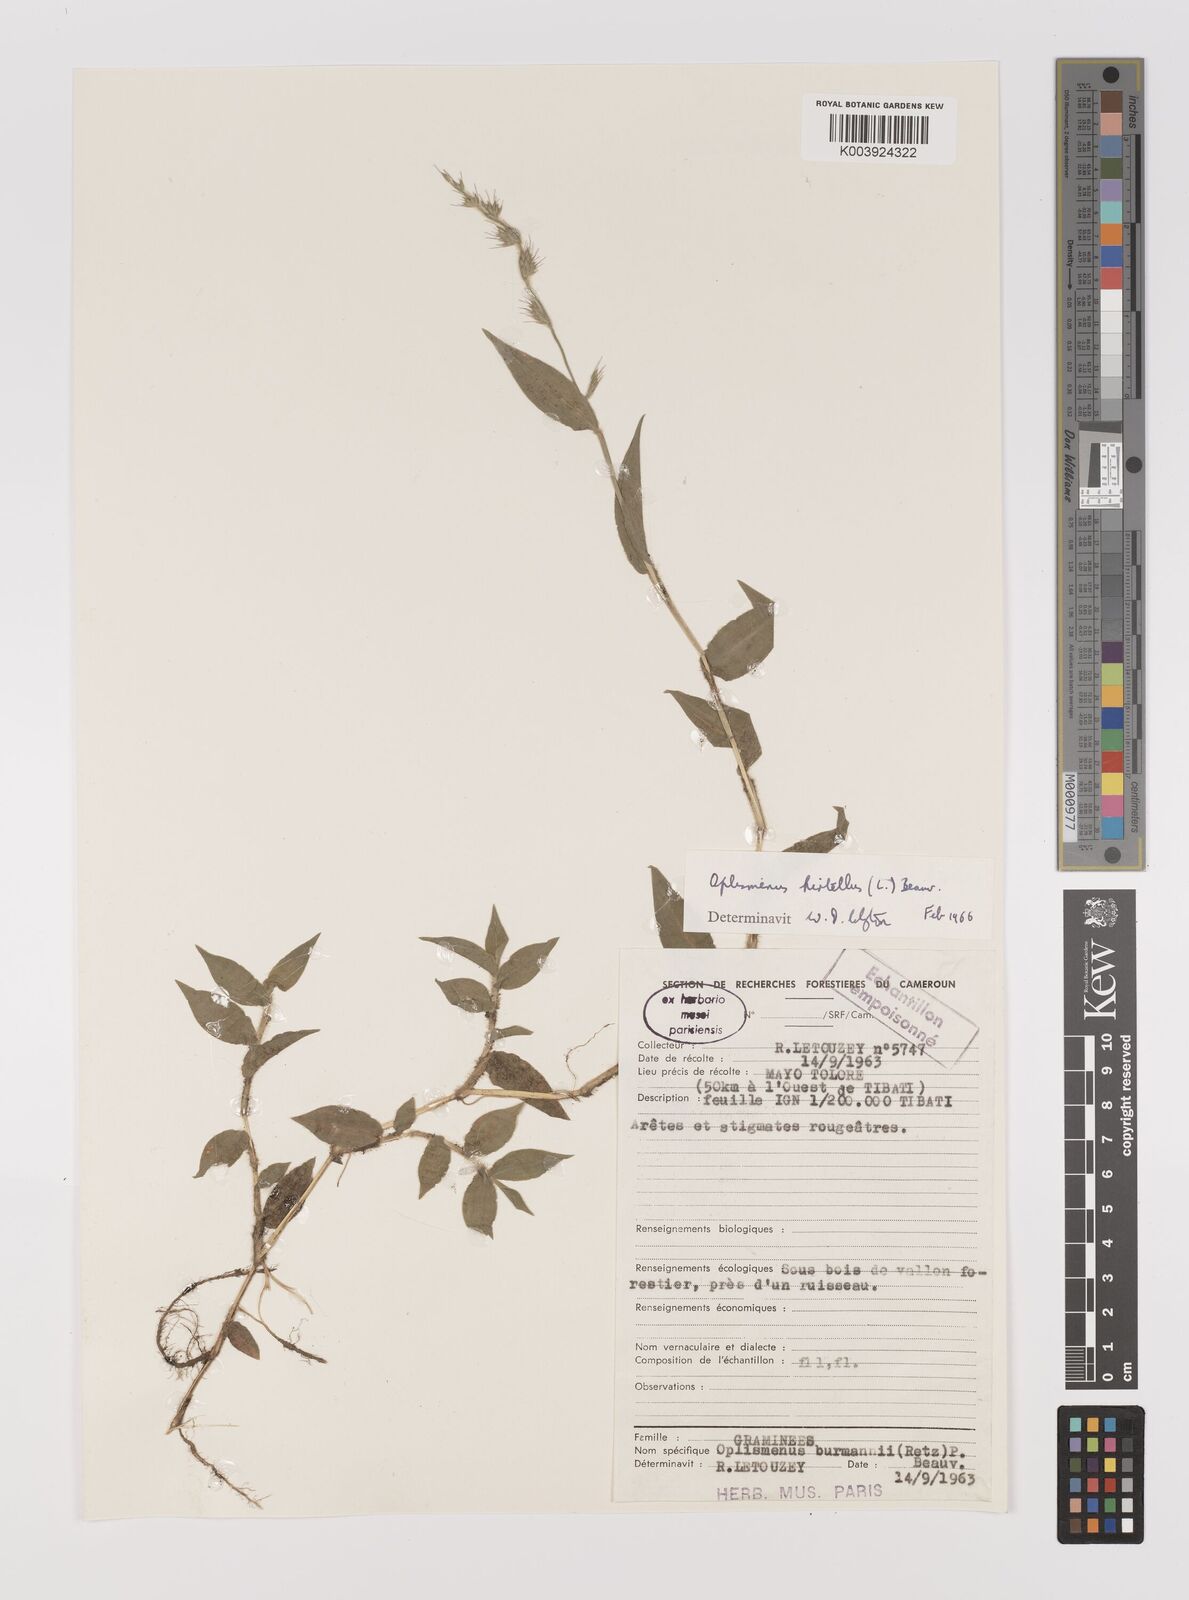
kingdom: Plantae
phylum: Tracheophyta
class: Liliopsida
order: Poales
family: Poaceae
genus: Oplismenus
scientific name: Oplismenus hirtellus
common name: Basketgrass
